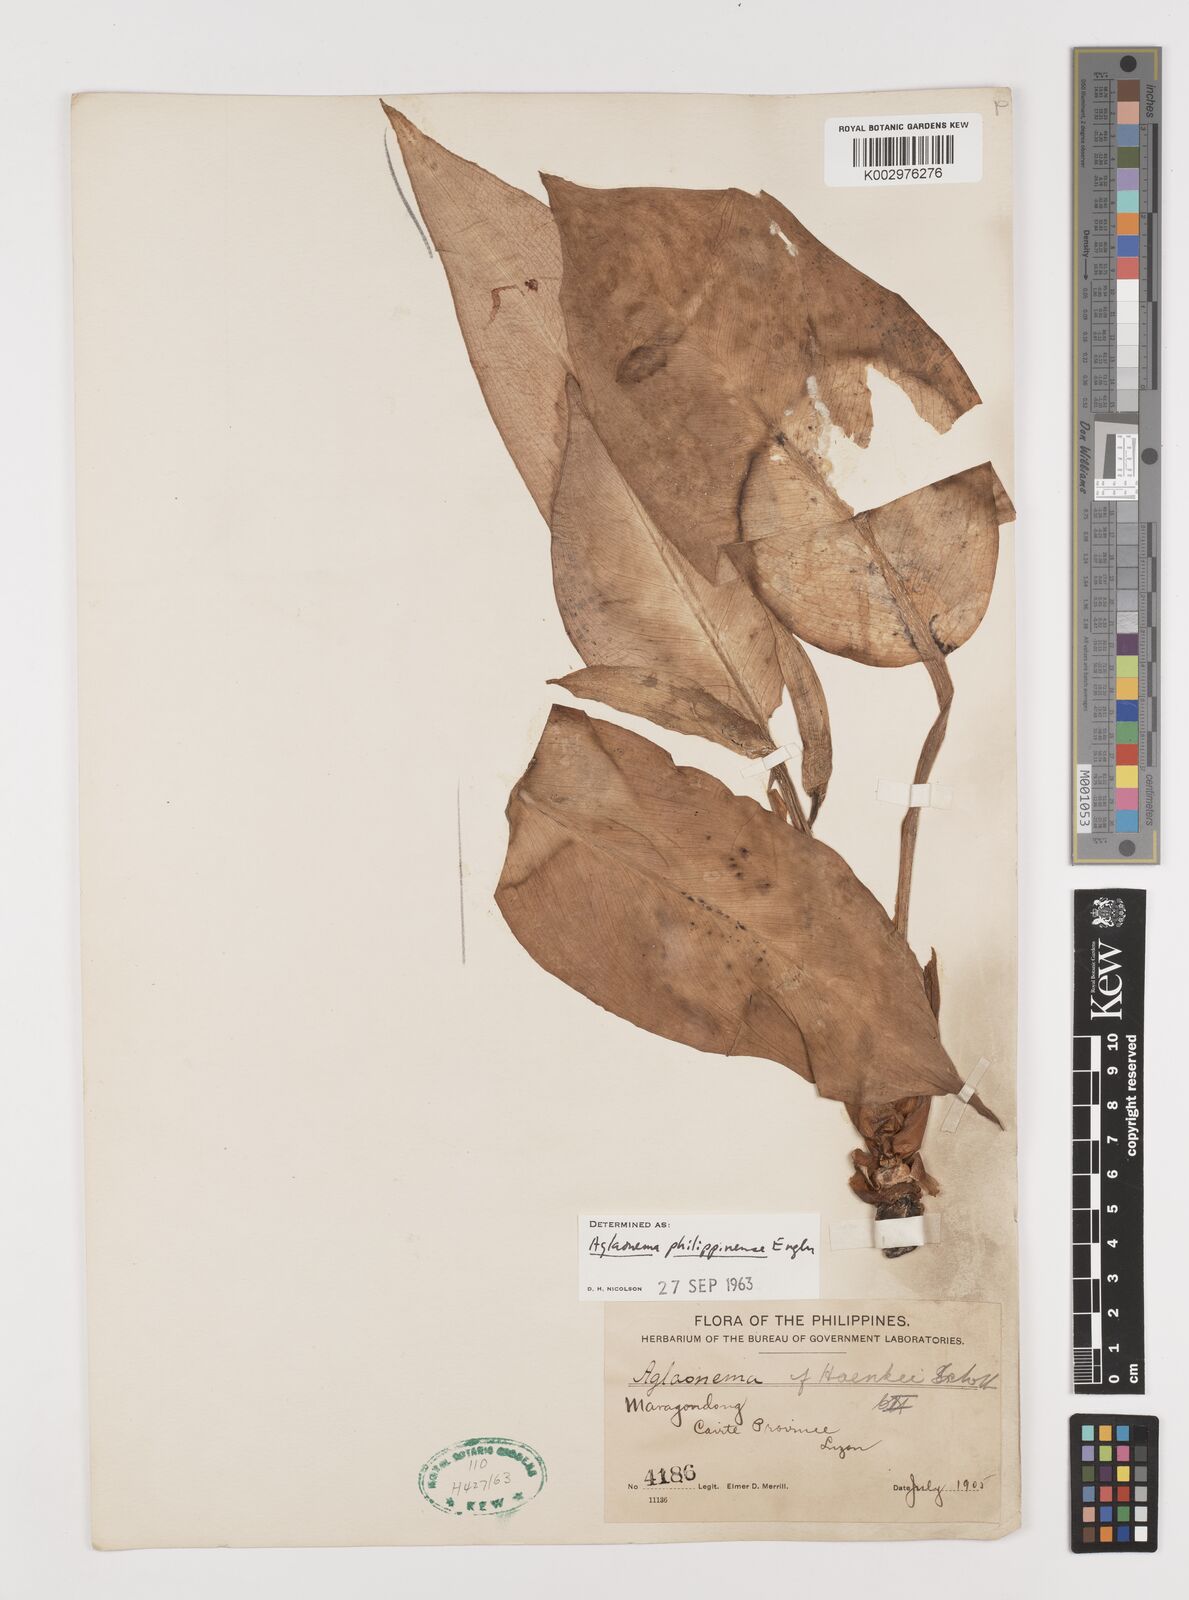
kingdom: Plantae
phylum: Tracheophyta
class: Liliopsida
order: Alismatales
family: Araceae
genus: Aglaonema
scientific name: Aglaonema philippinense
